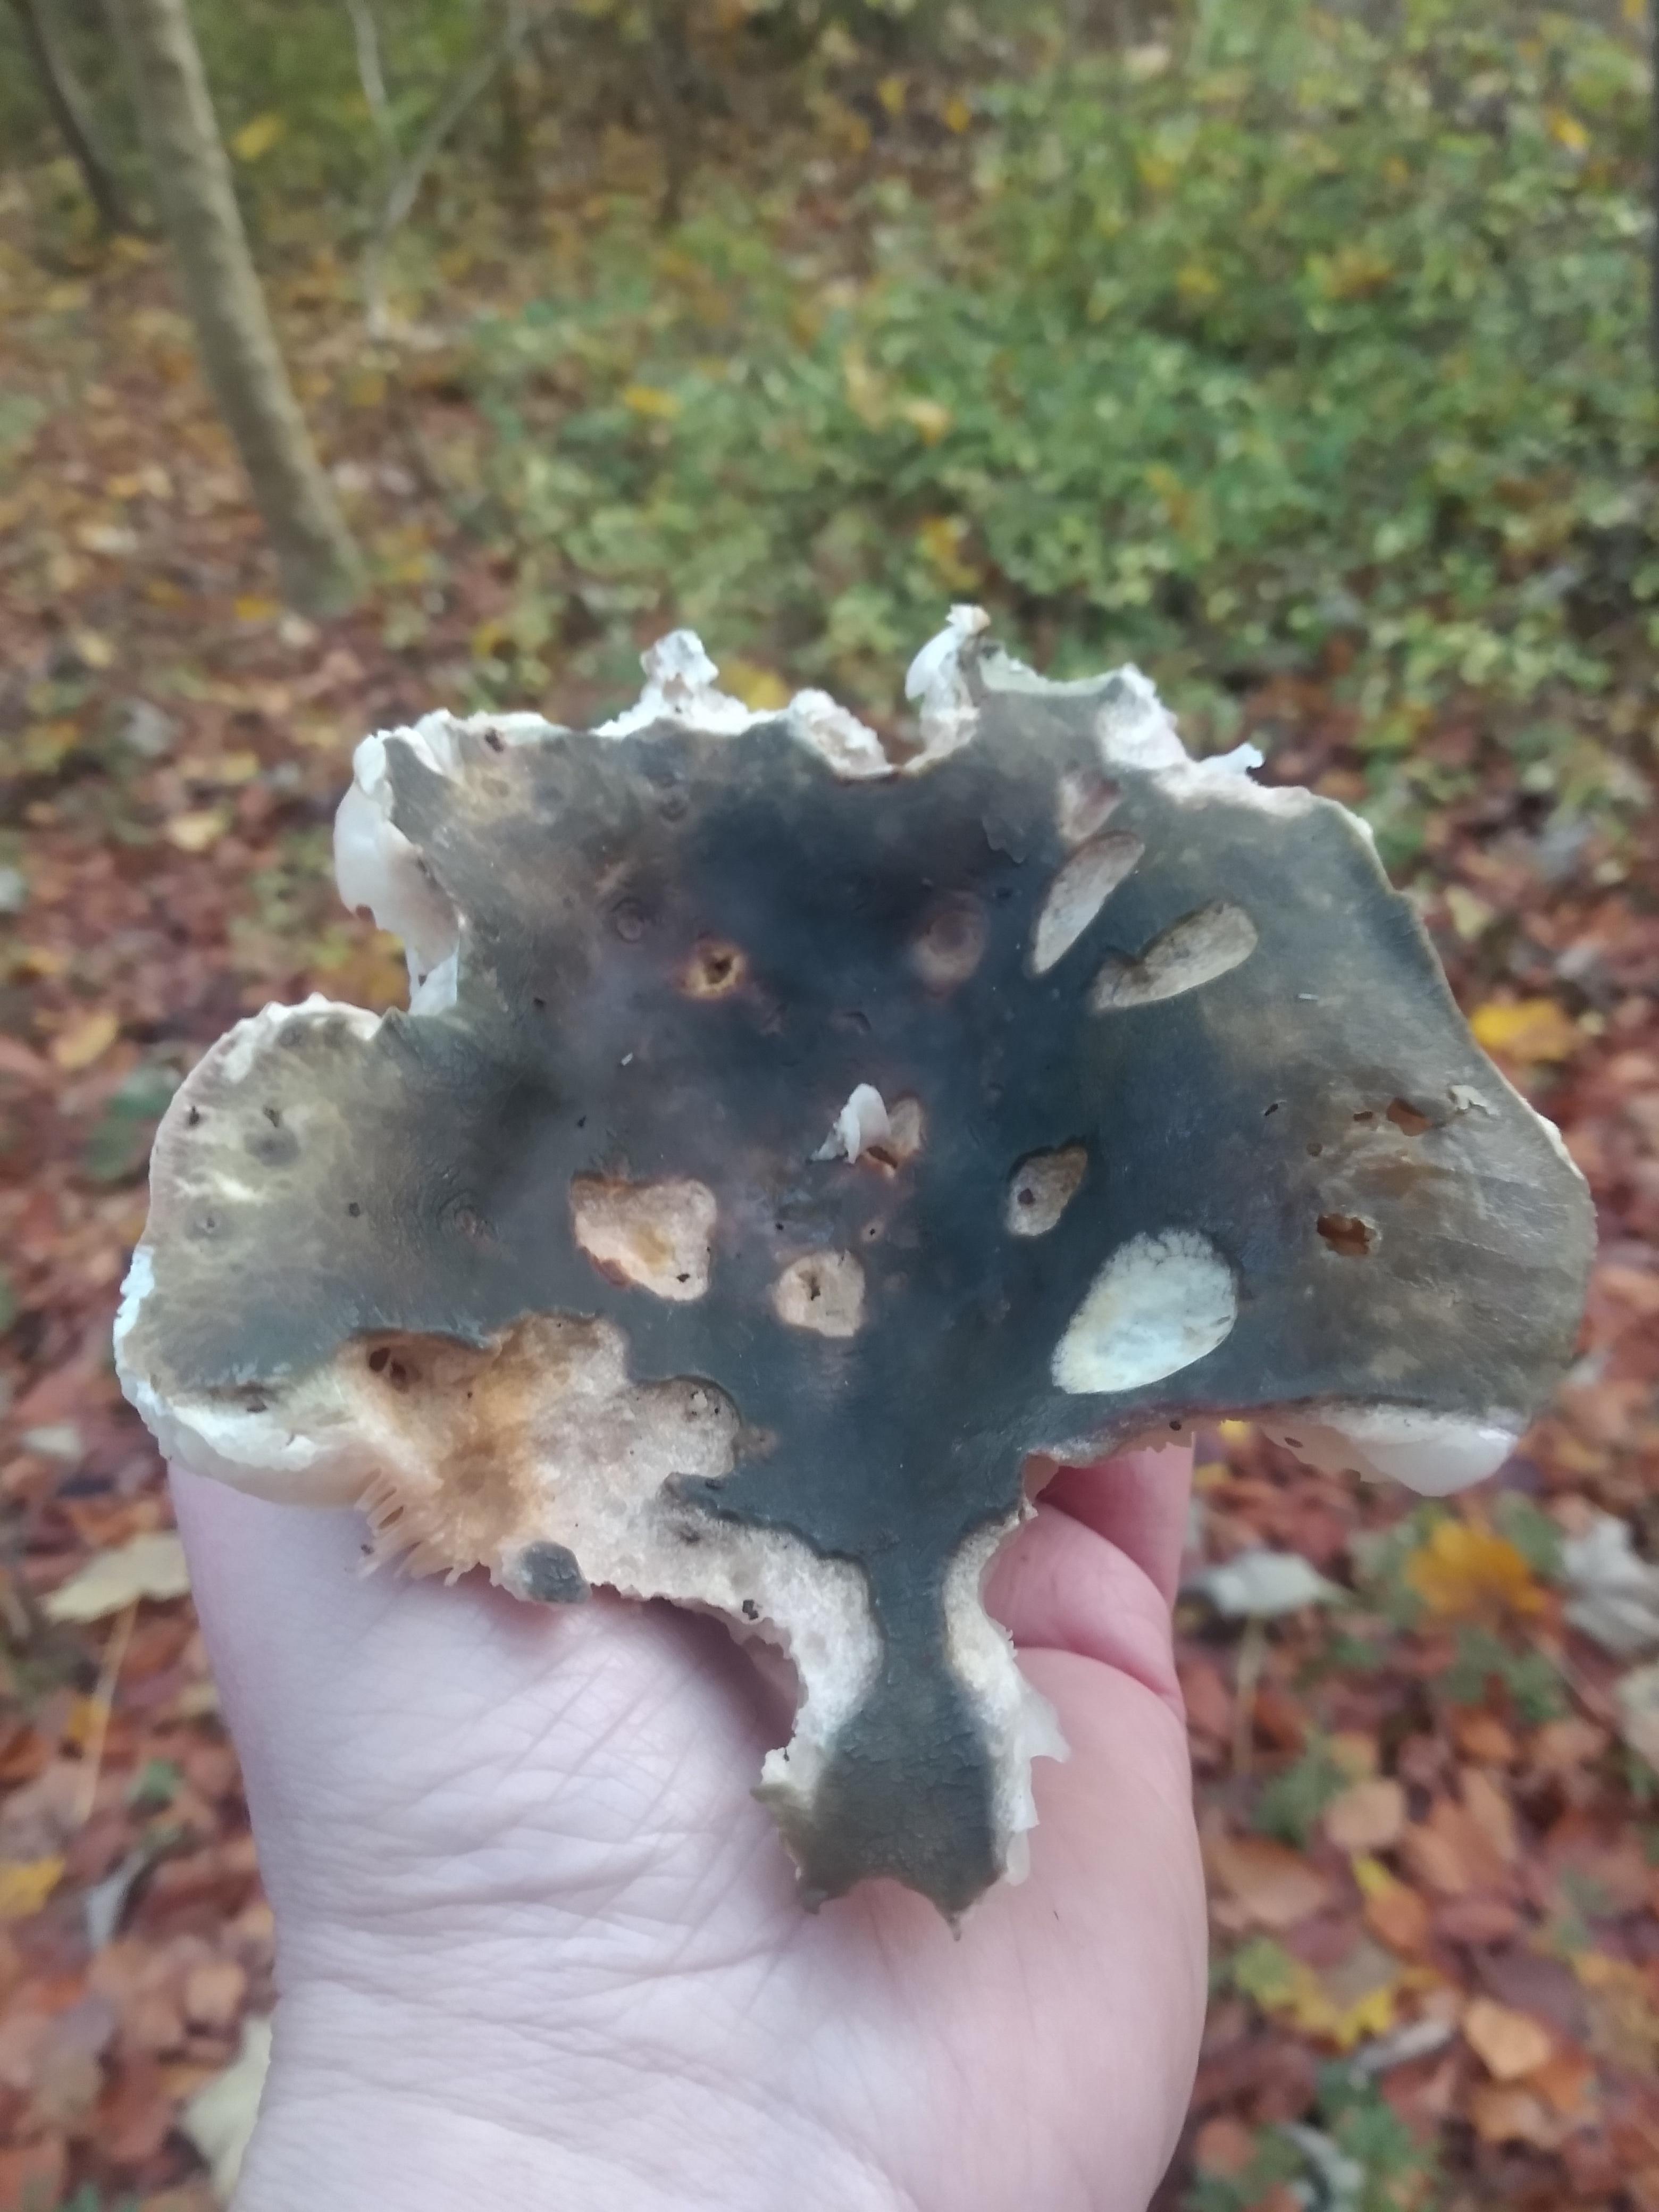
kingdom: Fungi
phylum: Basidiomycota
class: Agaricomycetes
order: Russulales
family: Russulaceae
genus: Russula
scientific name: Russula
